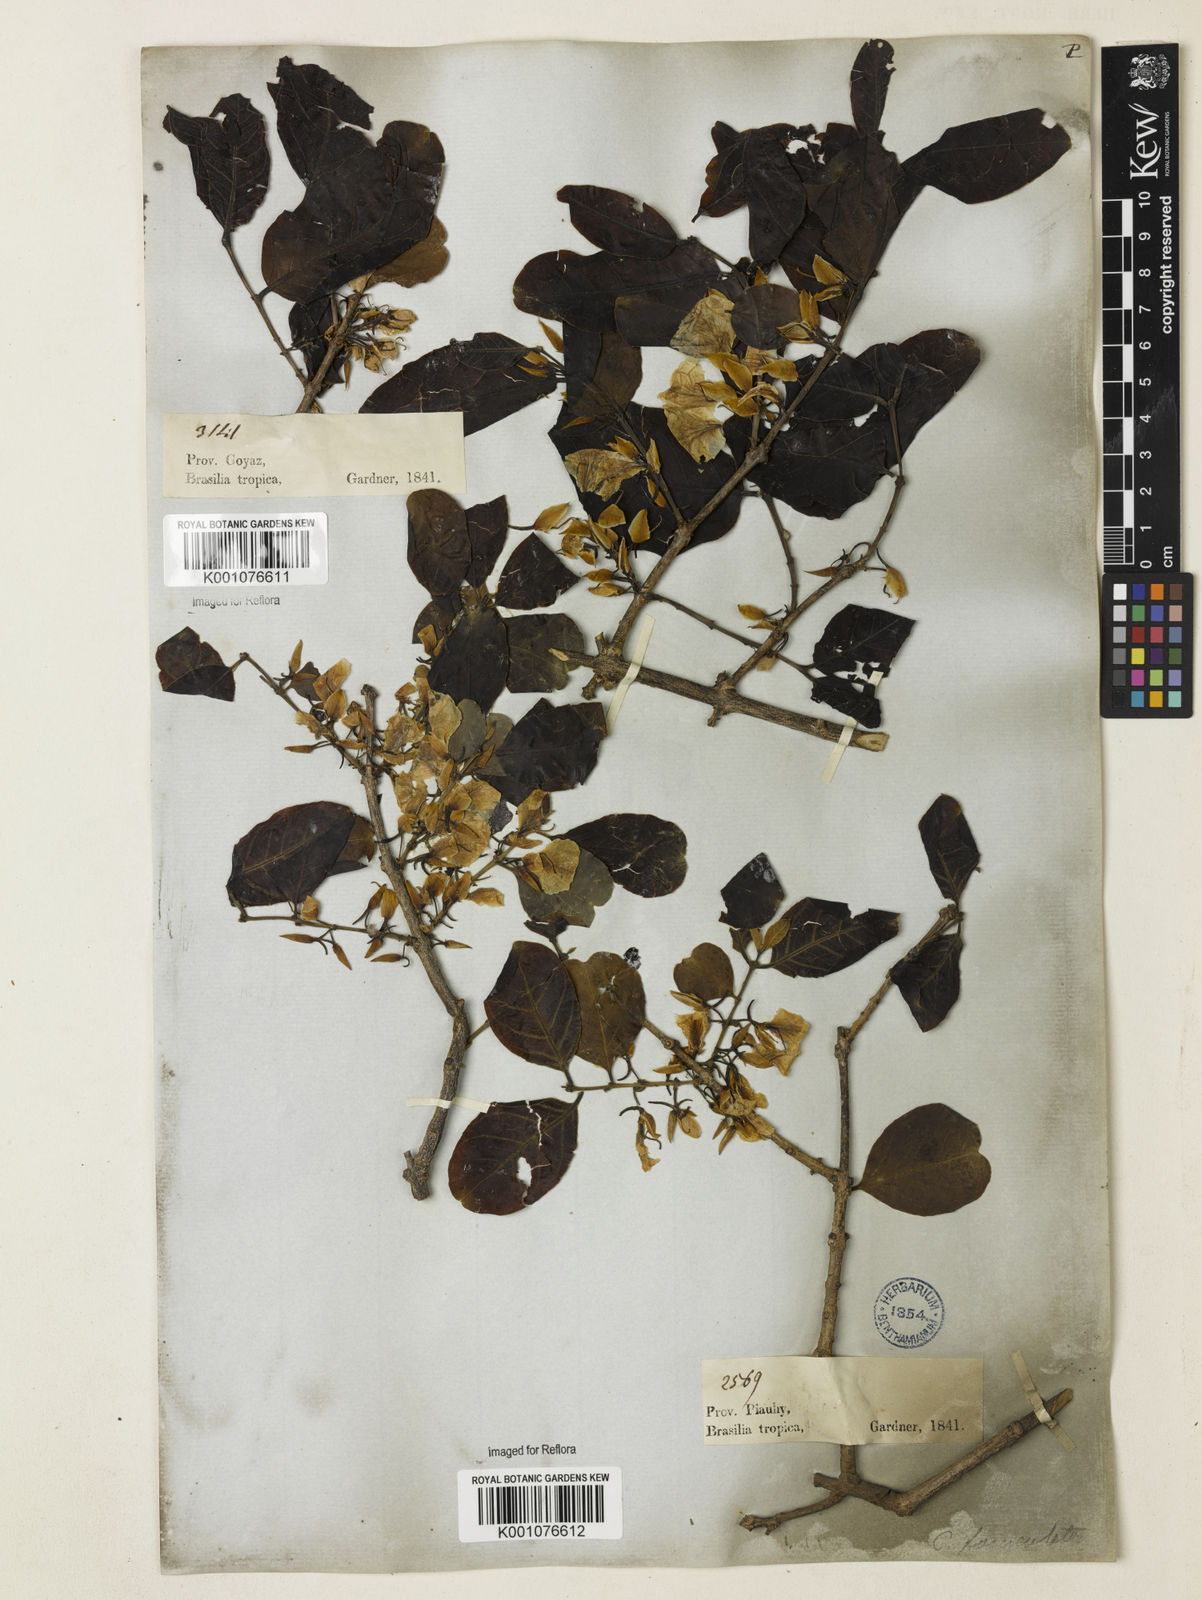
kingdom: Plantae
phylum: Tracheophyta
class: Magnoliopsida
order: Myrtales
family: Vochysiaceae
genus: Callisthene
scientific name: Callisthene fasciculata
